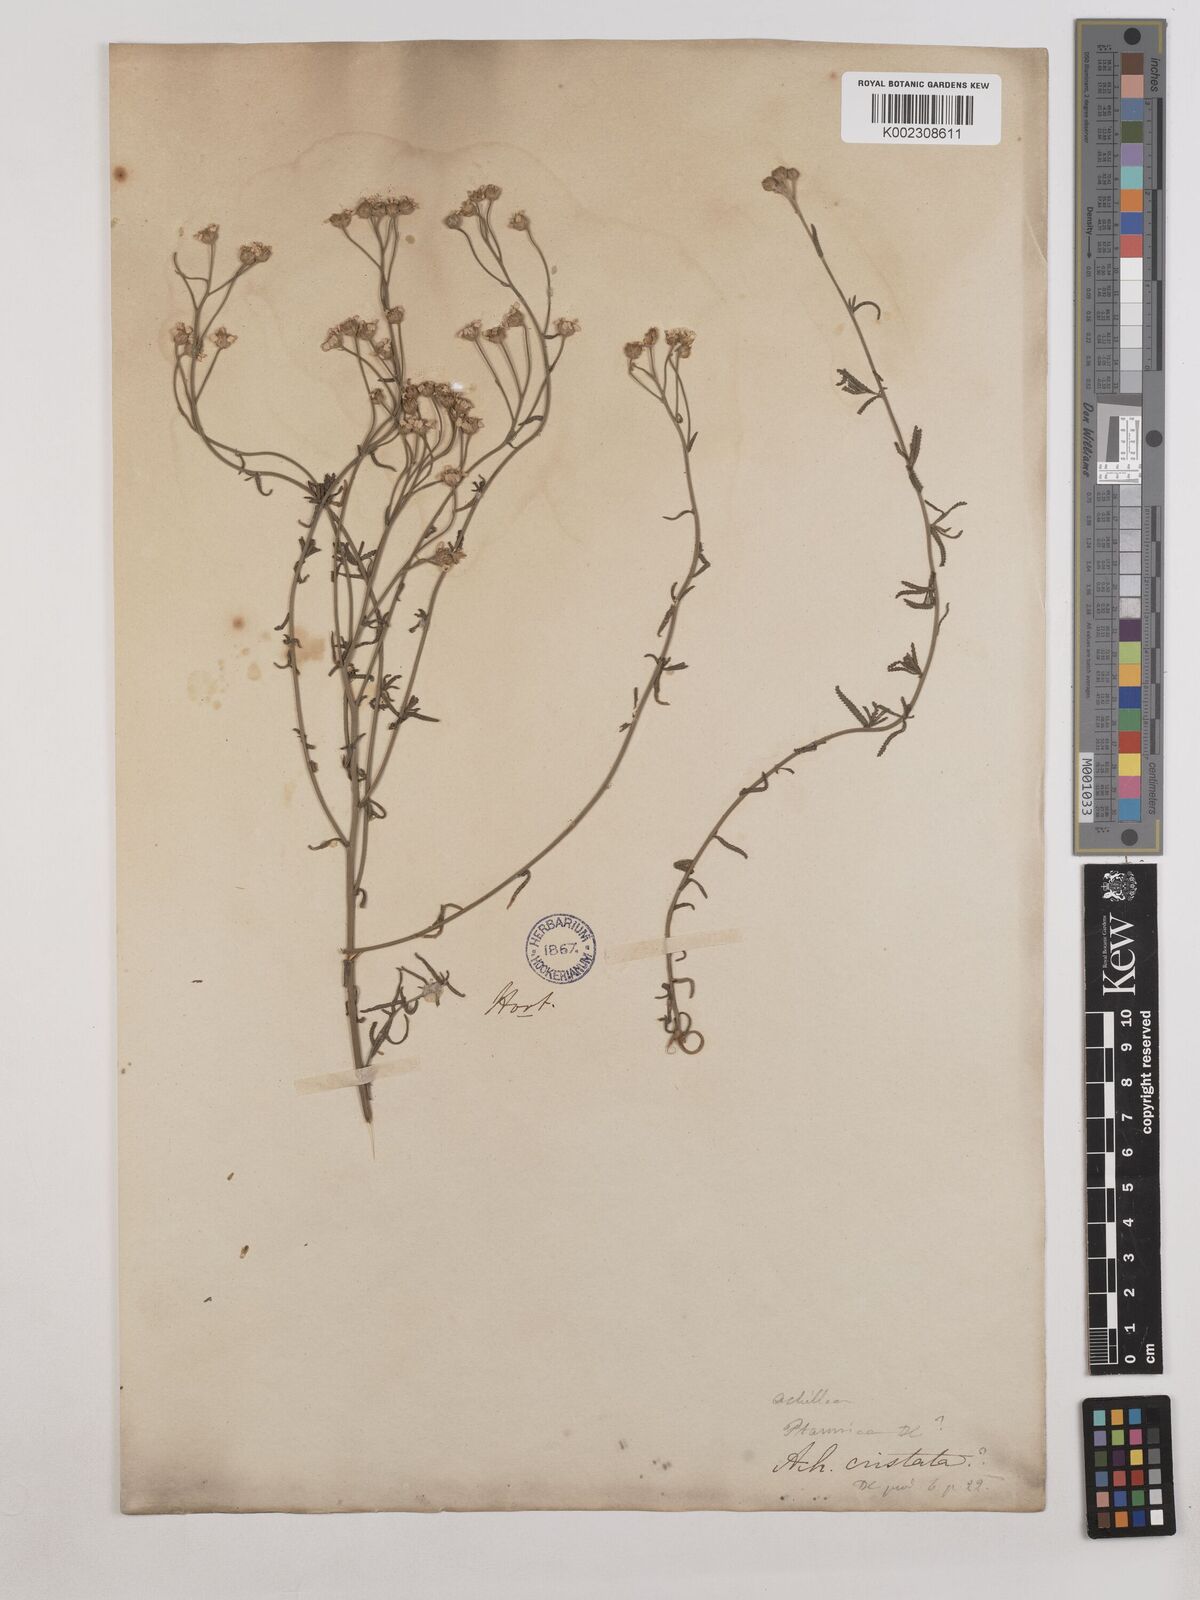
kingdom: Plantae
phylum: Tracheophyta
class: Magnoliopsida
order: Asterales
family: Asteraceae
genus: Achillea
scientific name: Achillea impatiens
